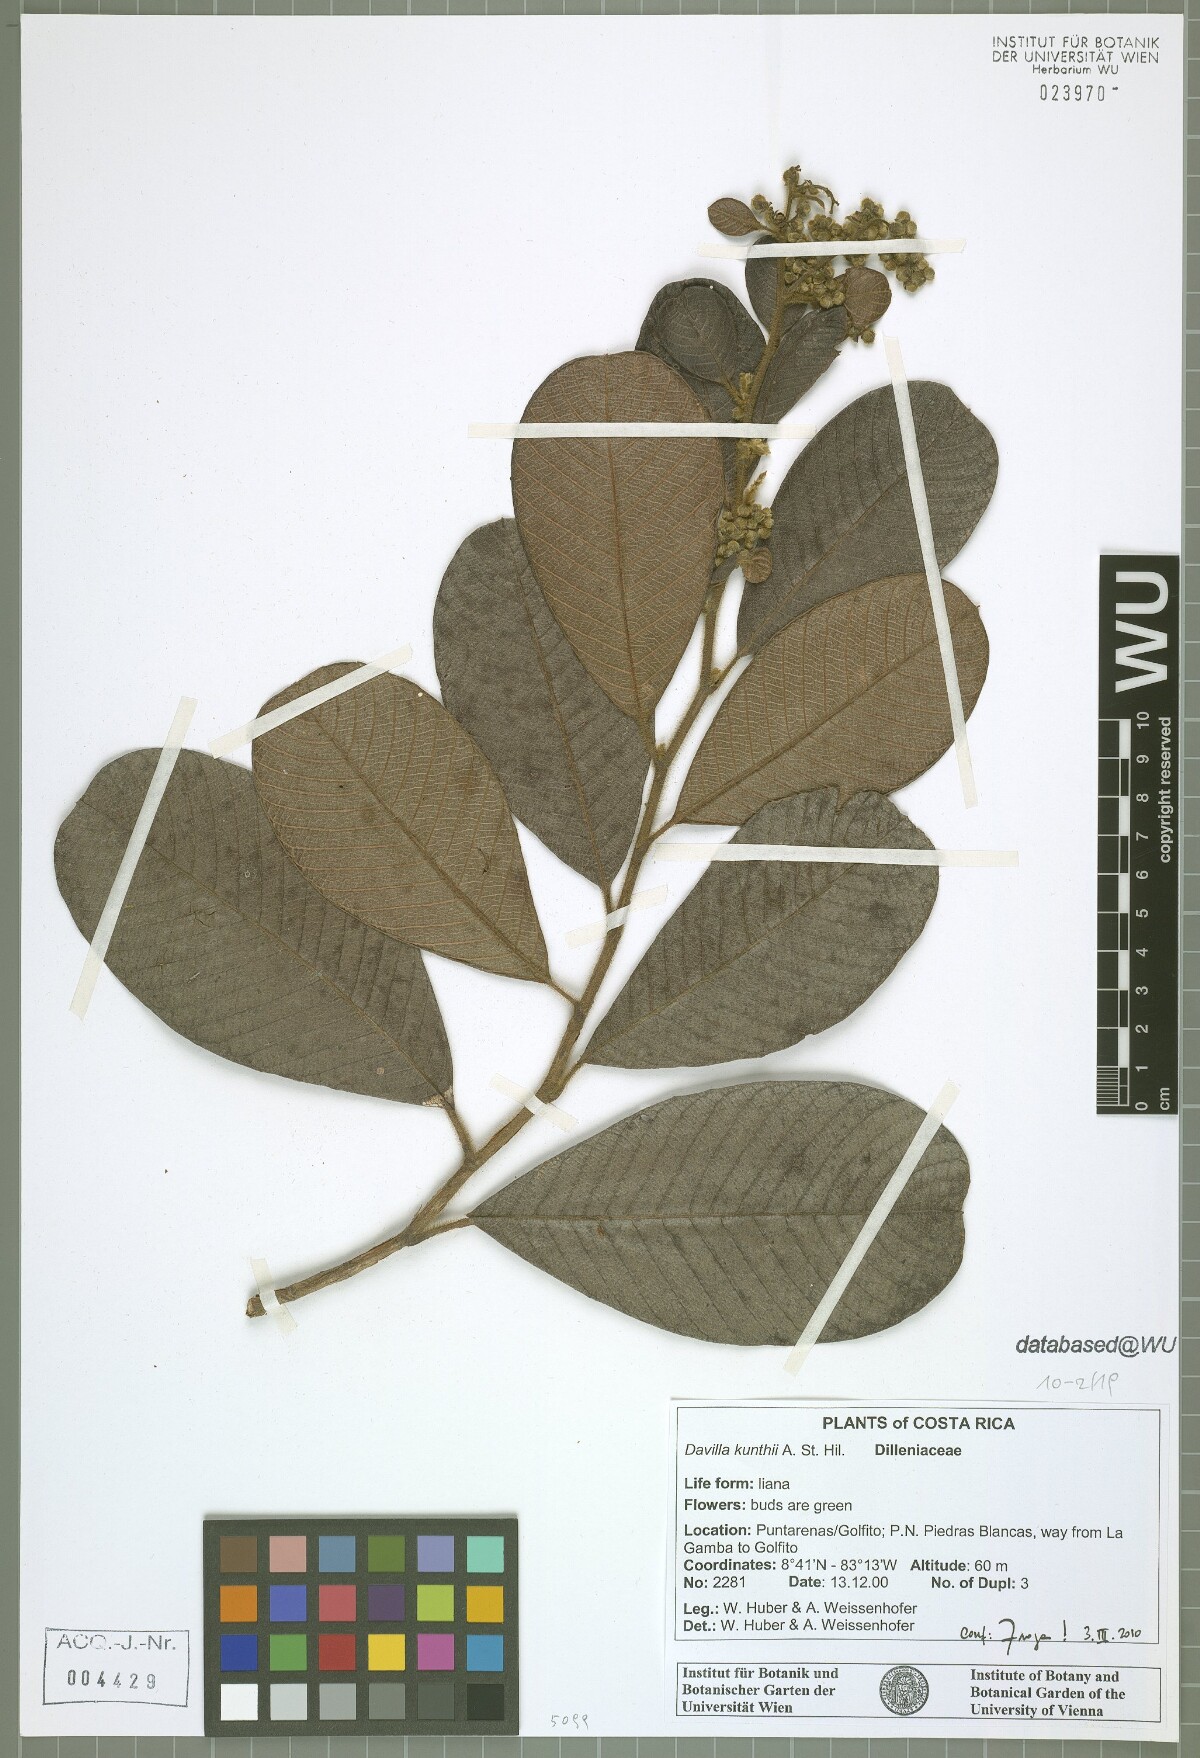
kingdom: Plantae
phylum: Tracheophyta
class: Magnoliopsida
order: Dilleniales
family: Dilleniaceae
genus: Davilla
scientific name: Davilla kunthii
